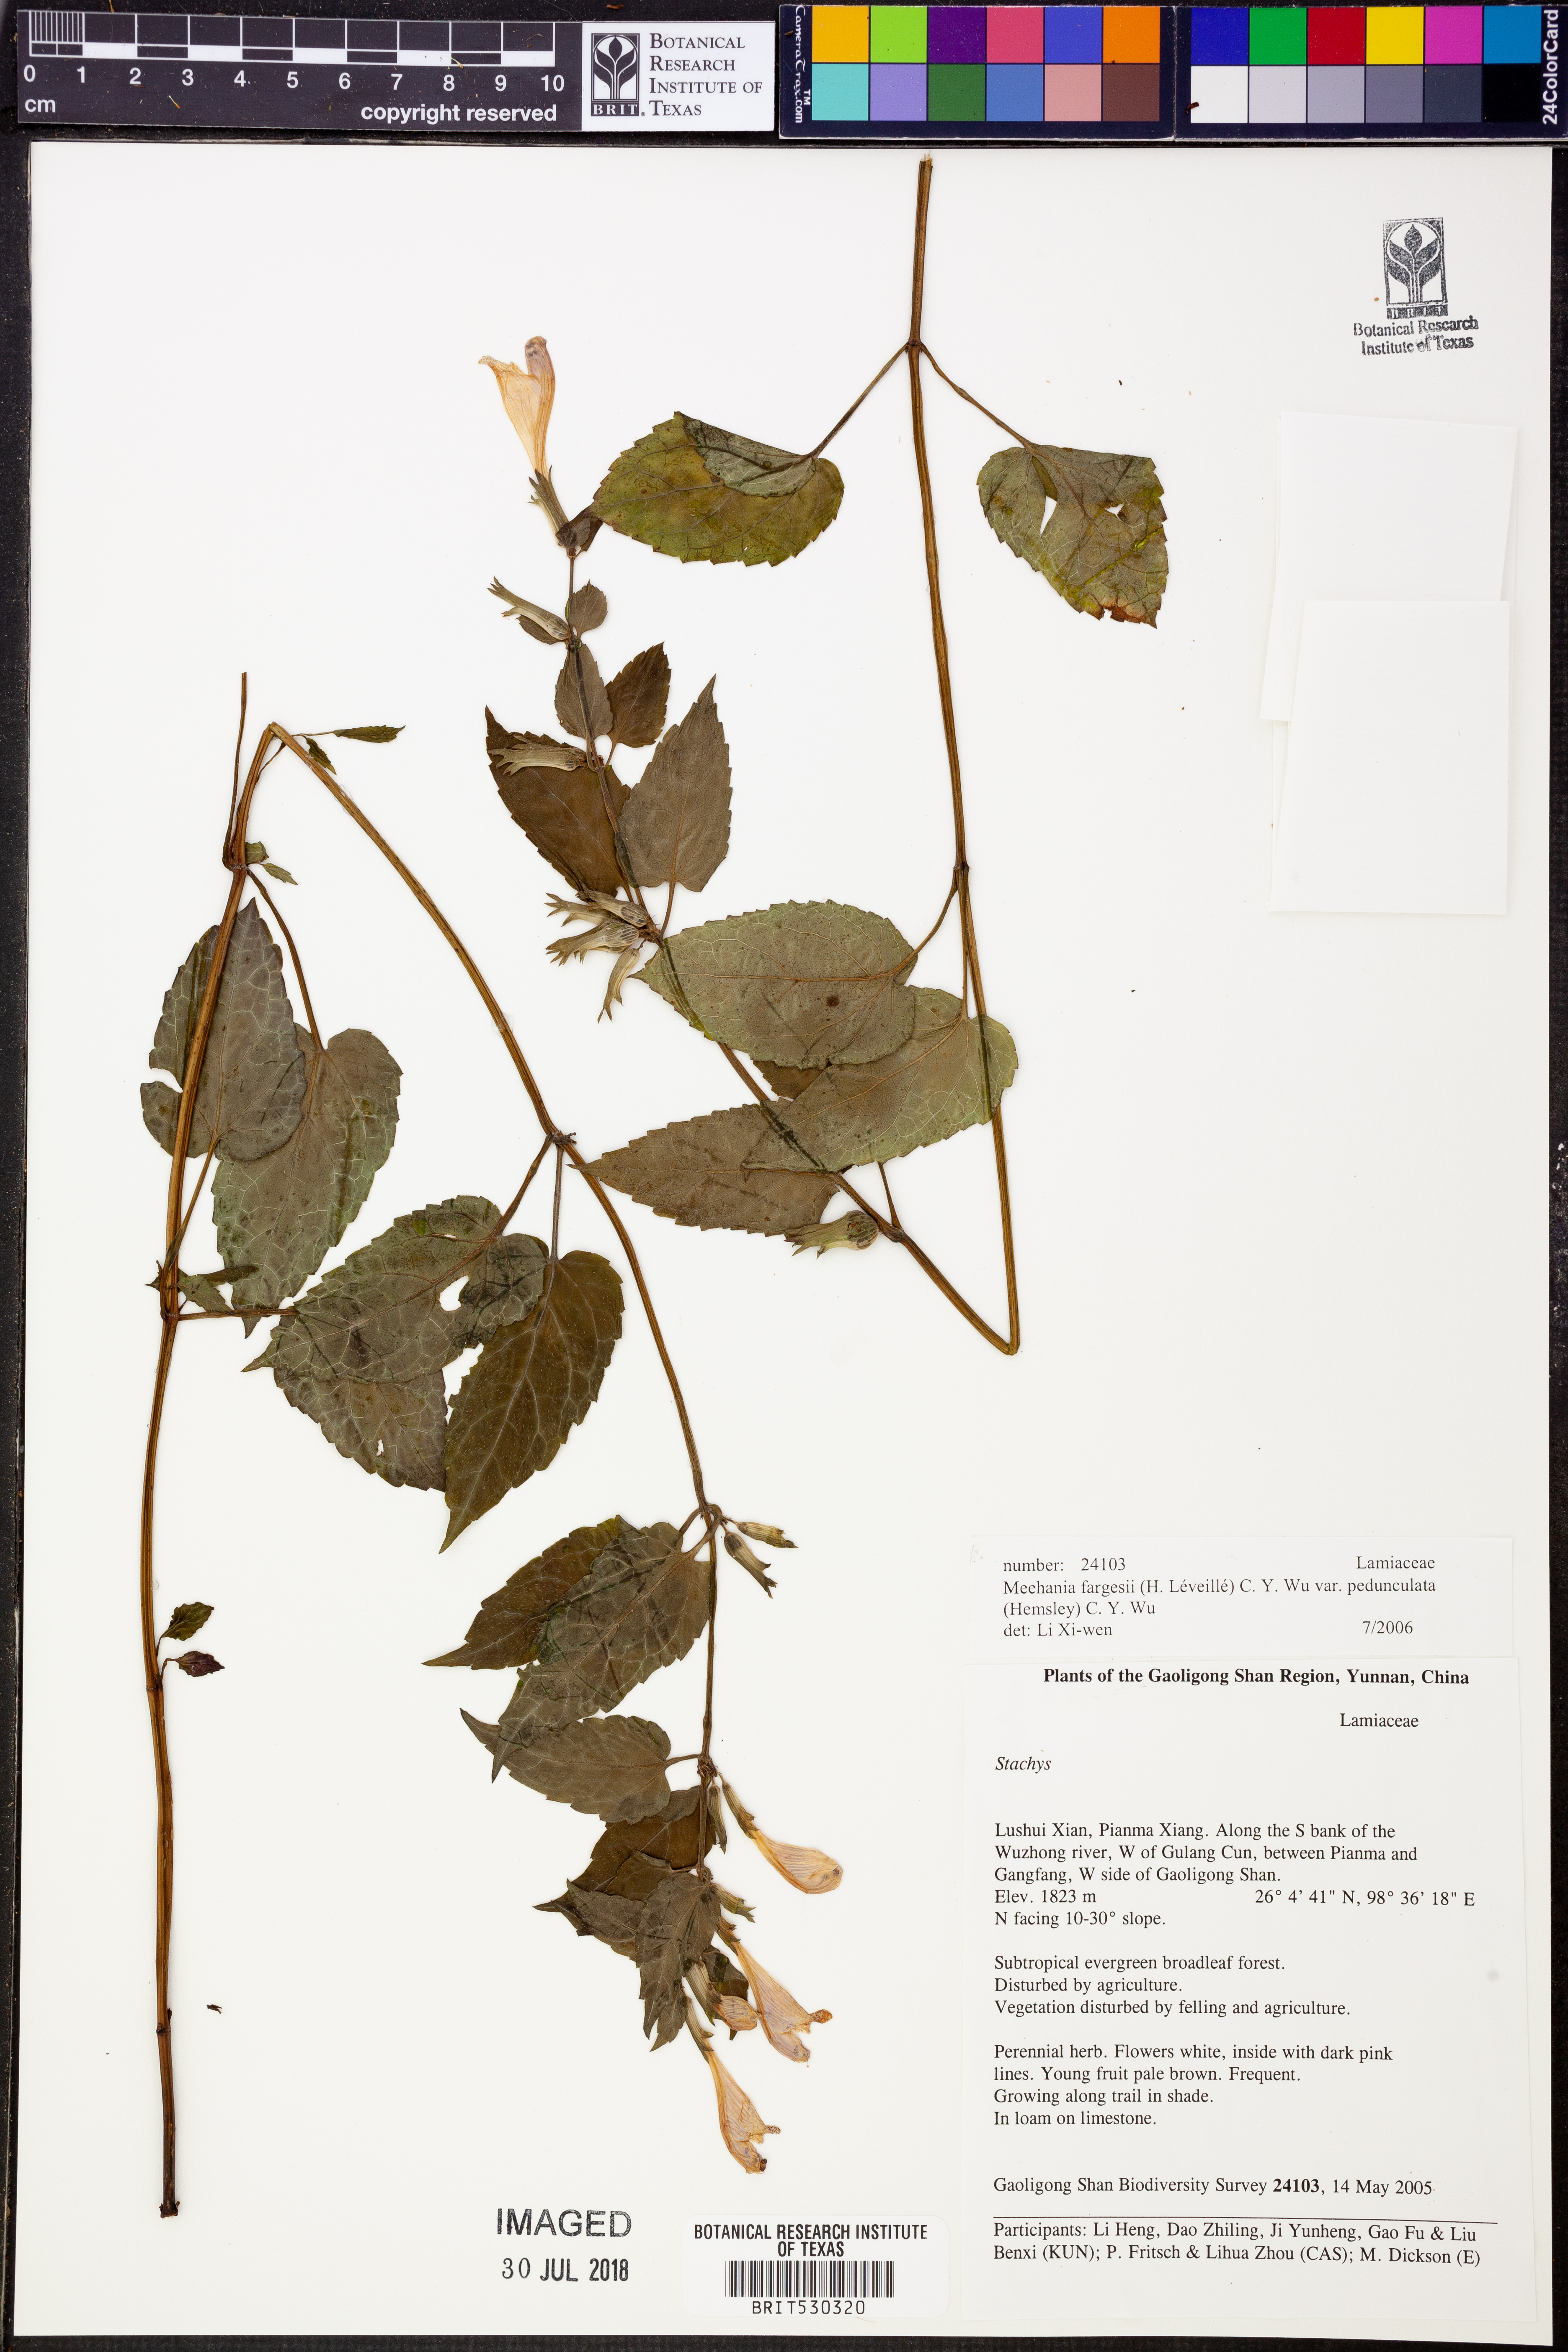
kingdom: Plantae
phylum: Tracheophyta
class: Magnoliopsida
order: Lamiales
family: Lamiaceae
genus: Meehania
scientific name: Meehania fargesii
